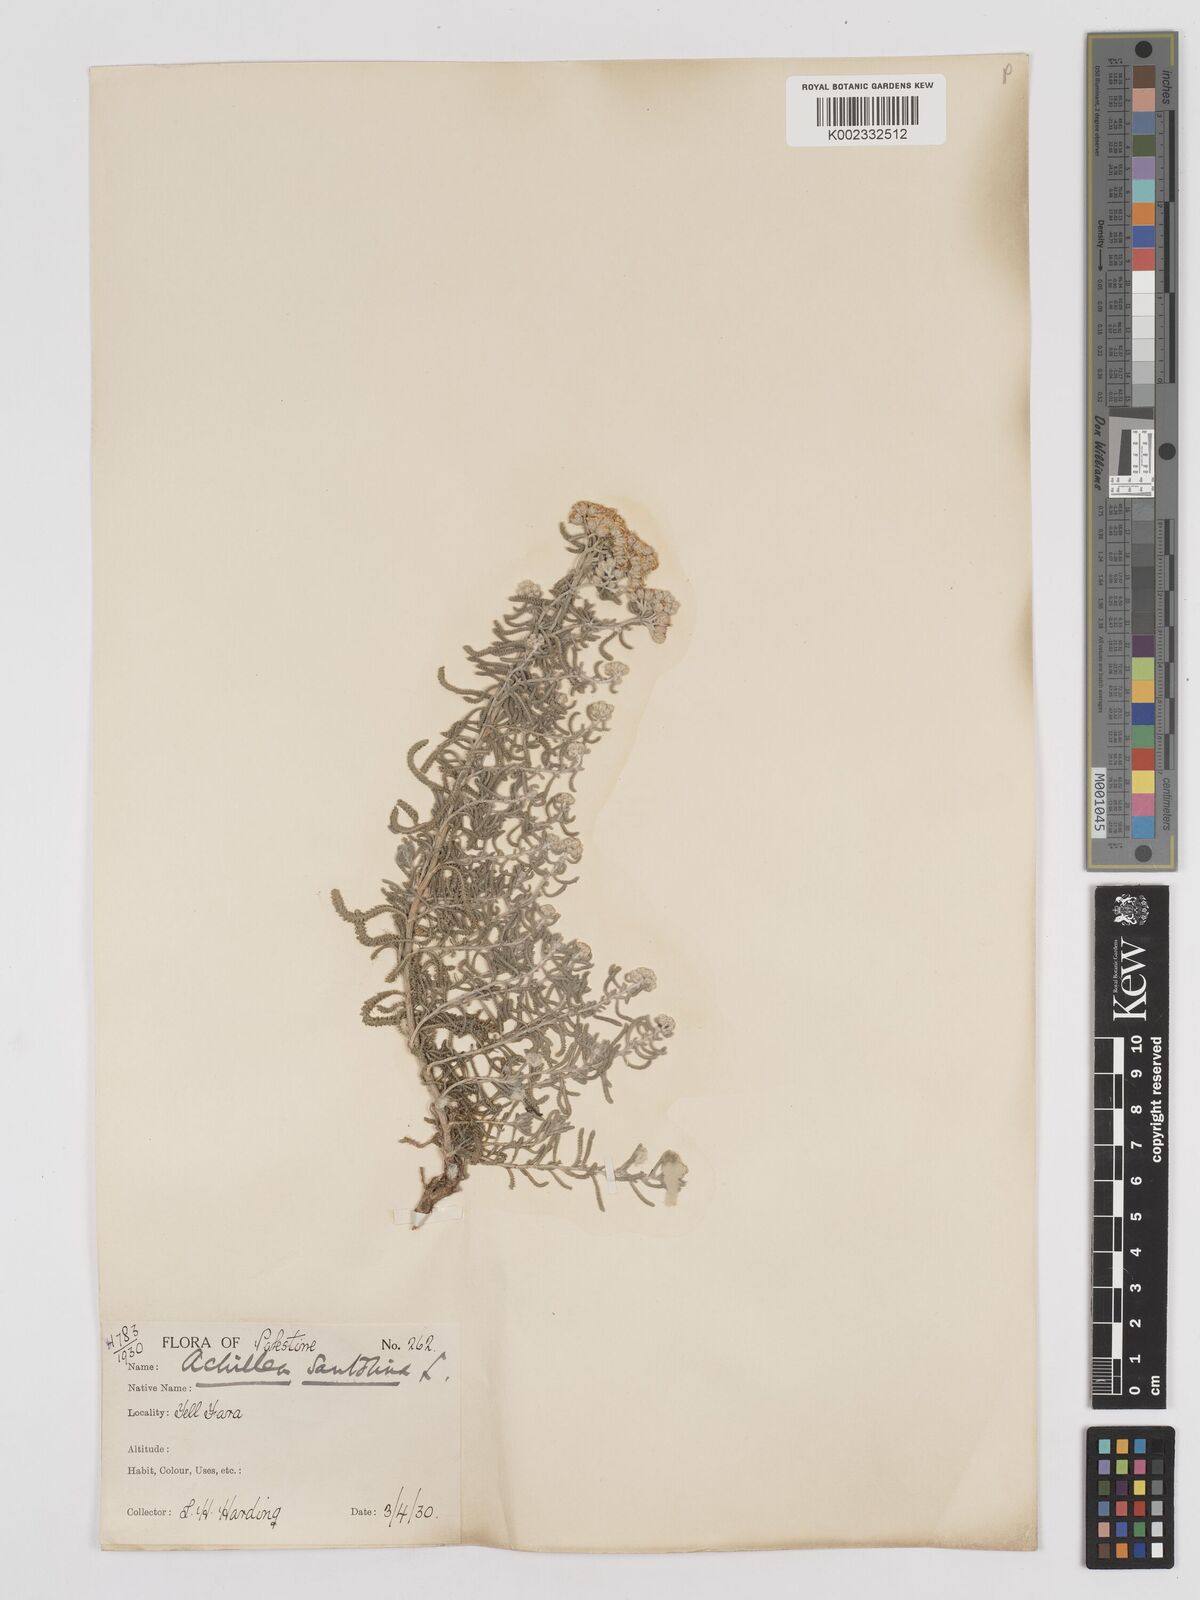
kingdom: Plantae
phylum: Tracheophyta
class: Magnoliopsida
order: Asterales
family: Asteraceae
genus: Achillea
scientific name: Achillea tenuifolia
